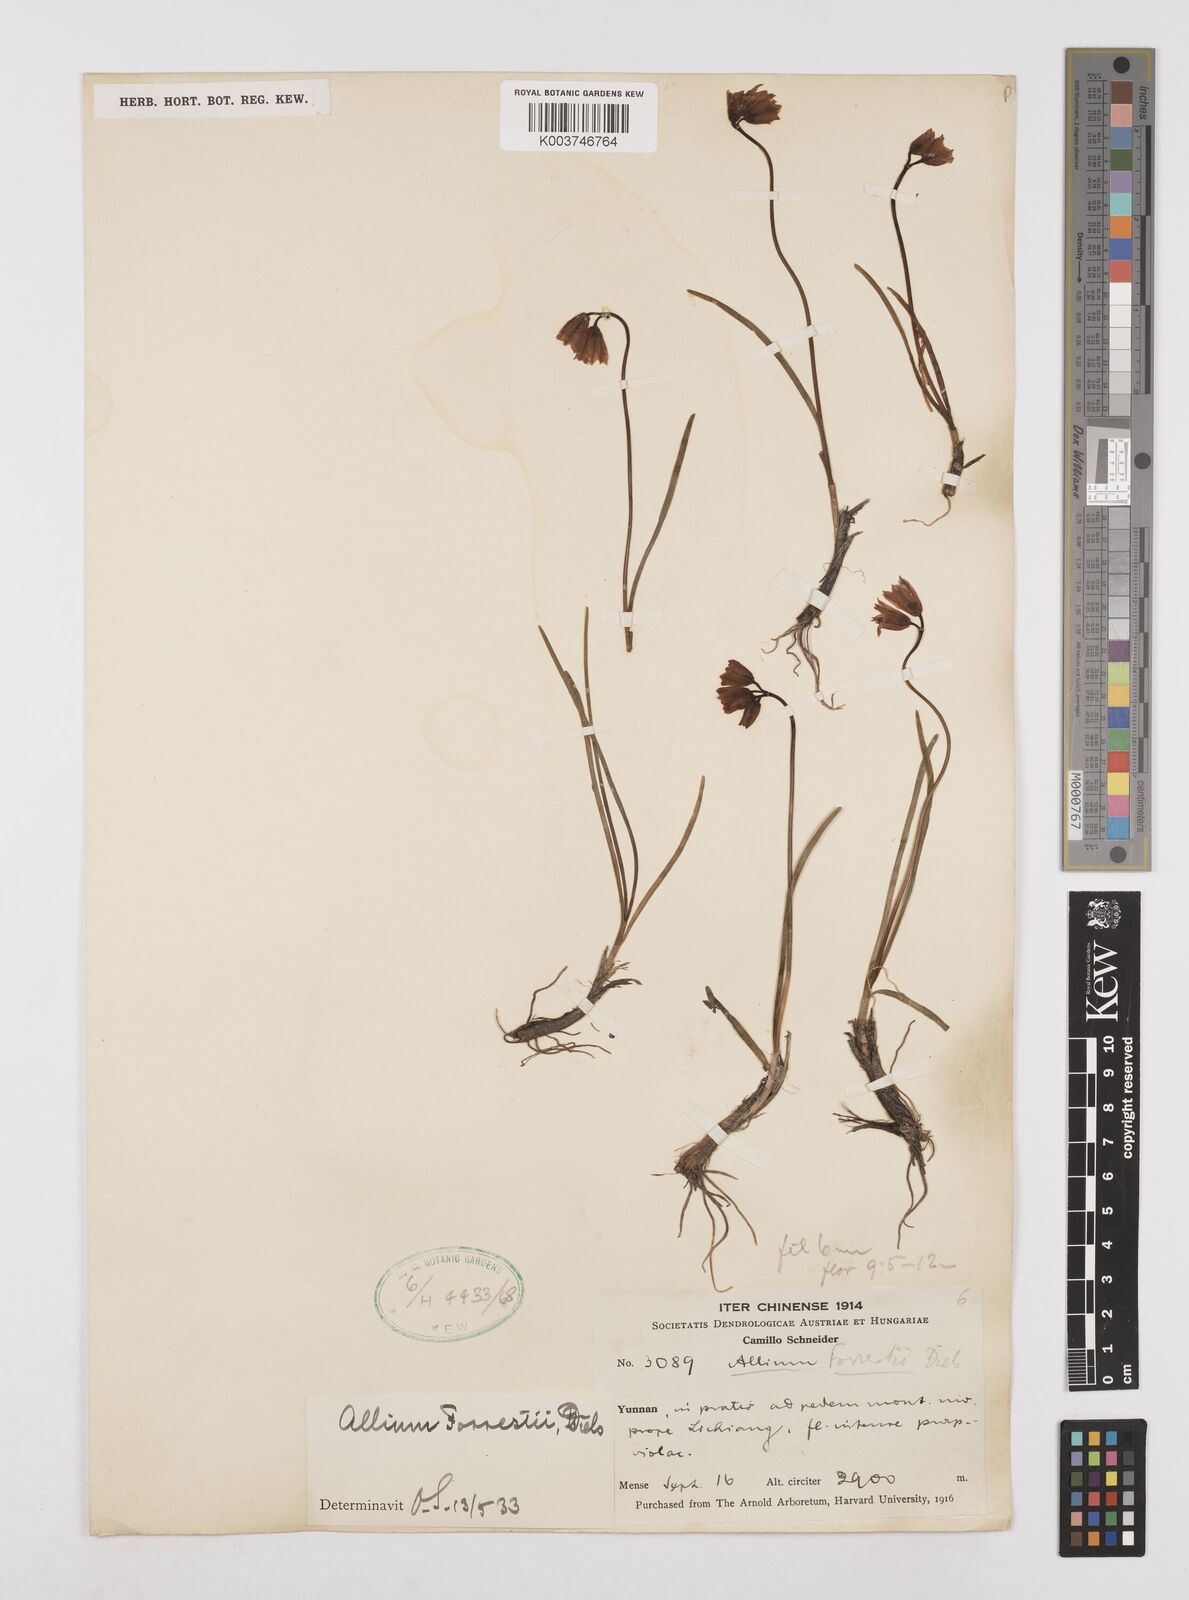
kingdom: Plantae
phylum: Tracheophyta
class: Liliopsida
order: Asparagales
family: Amaryllidaceae
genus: Allium
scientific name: Allium forrestii
